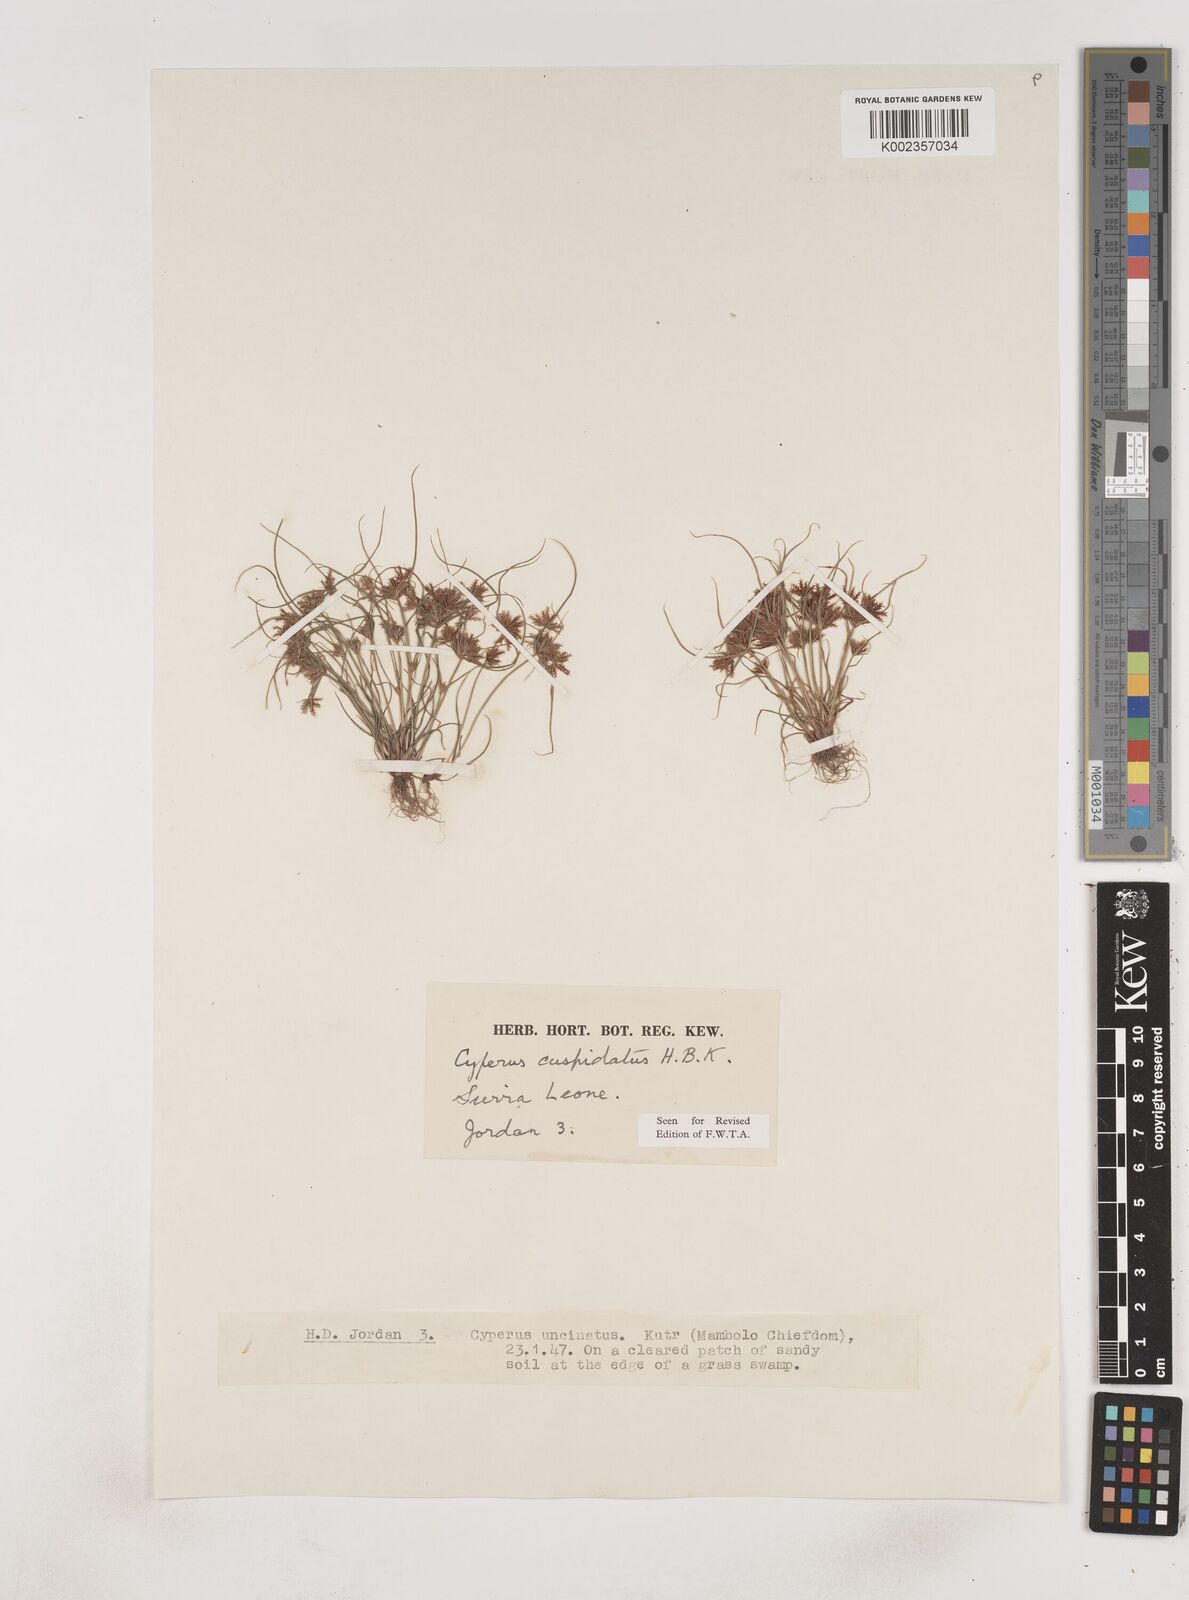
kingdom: Plantae
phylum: Tracheophyta
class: Liliopsida
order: Poales
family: Cyperaceae
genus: Cyperus
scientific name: Cyperus
